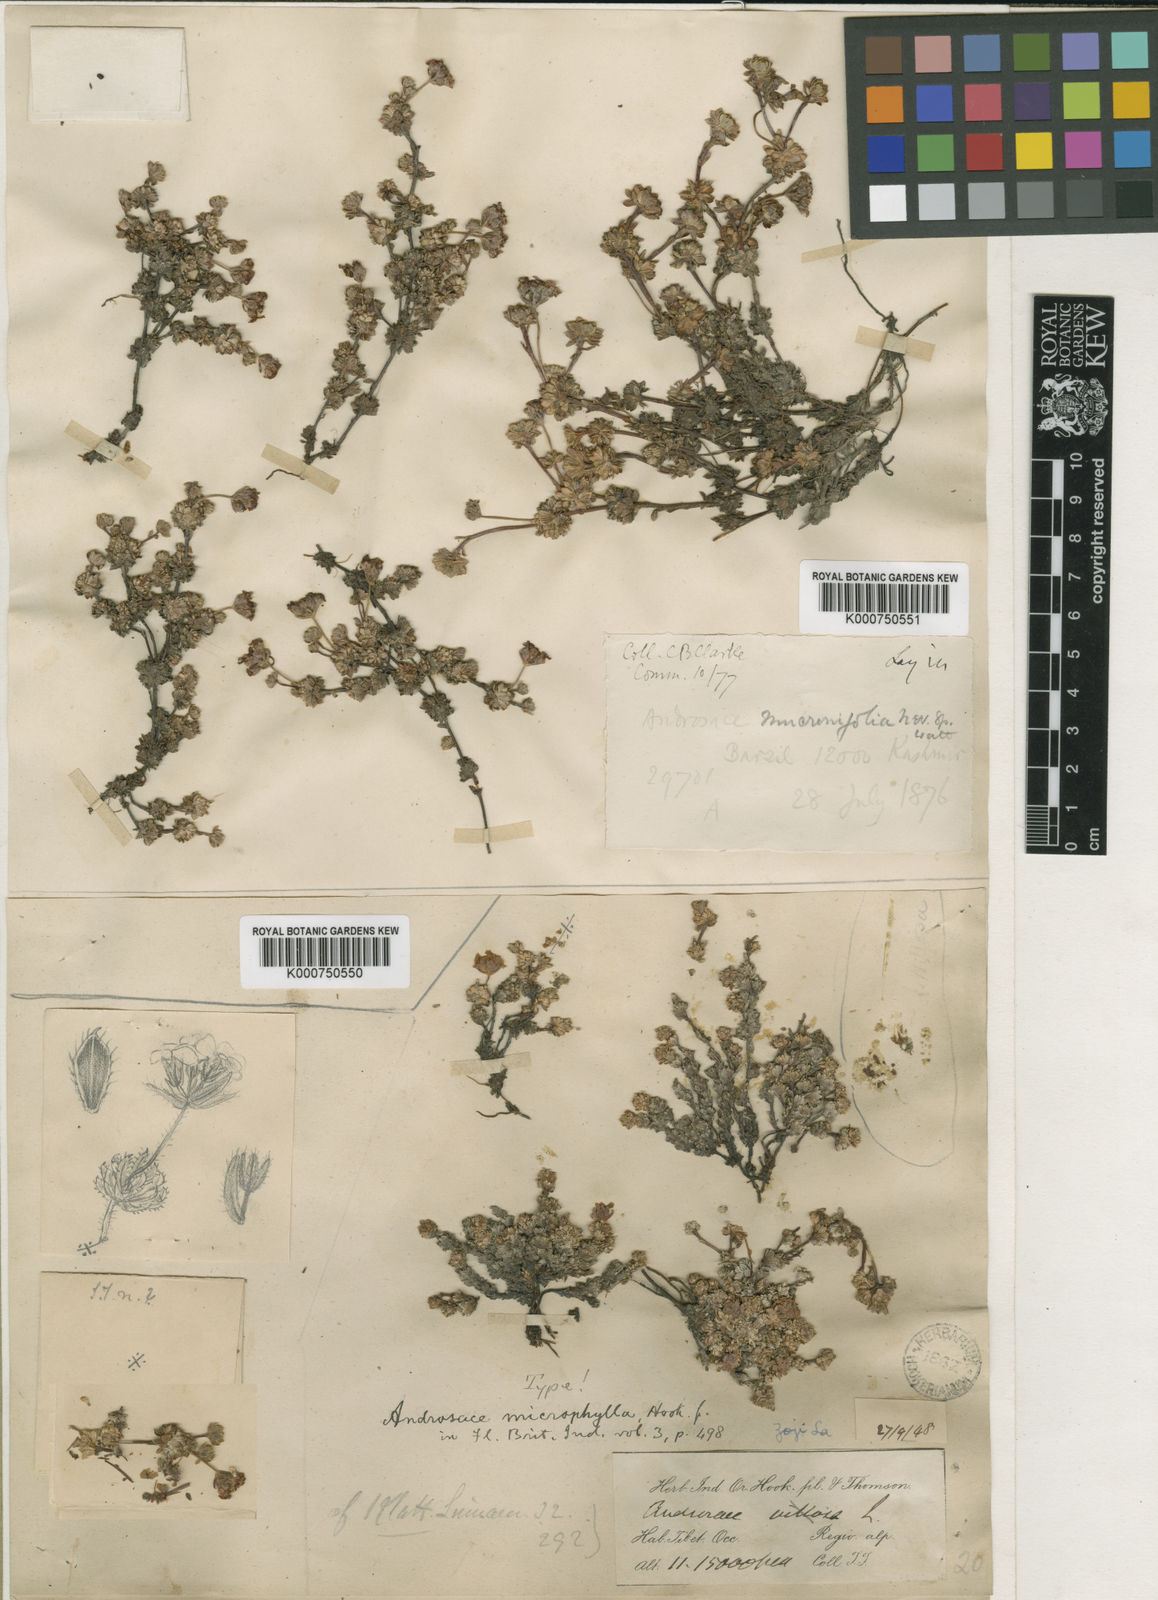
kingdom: Plantae
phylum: Tracheophyta
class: Magnoliopsida
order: Ericales
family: Primulaceae
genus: Androsace
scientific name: Androsace mucronifolia
